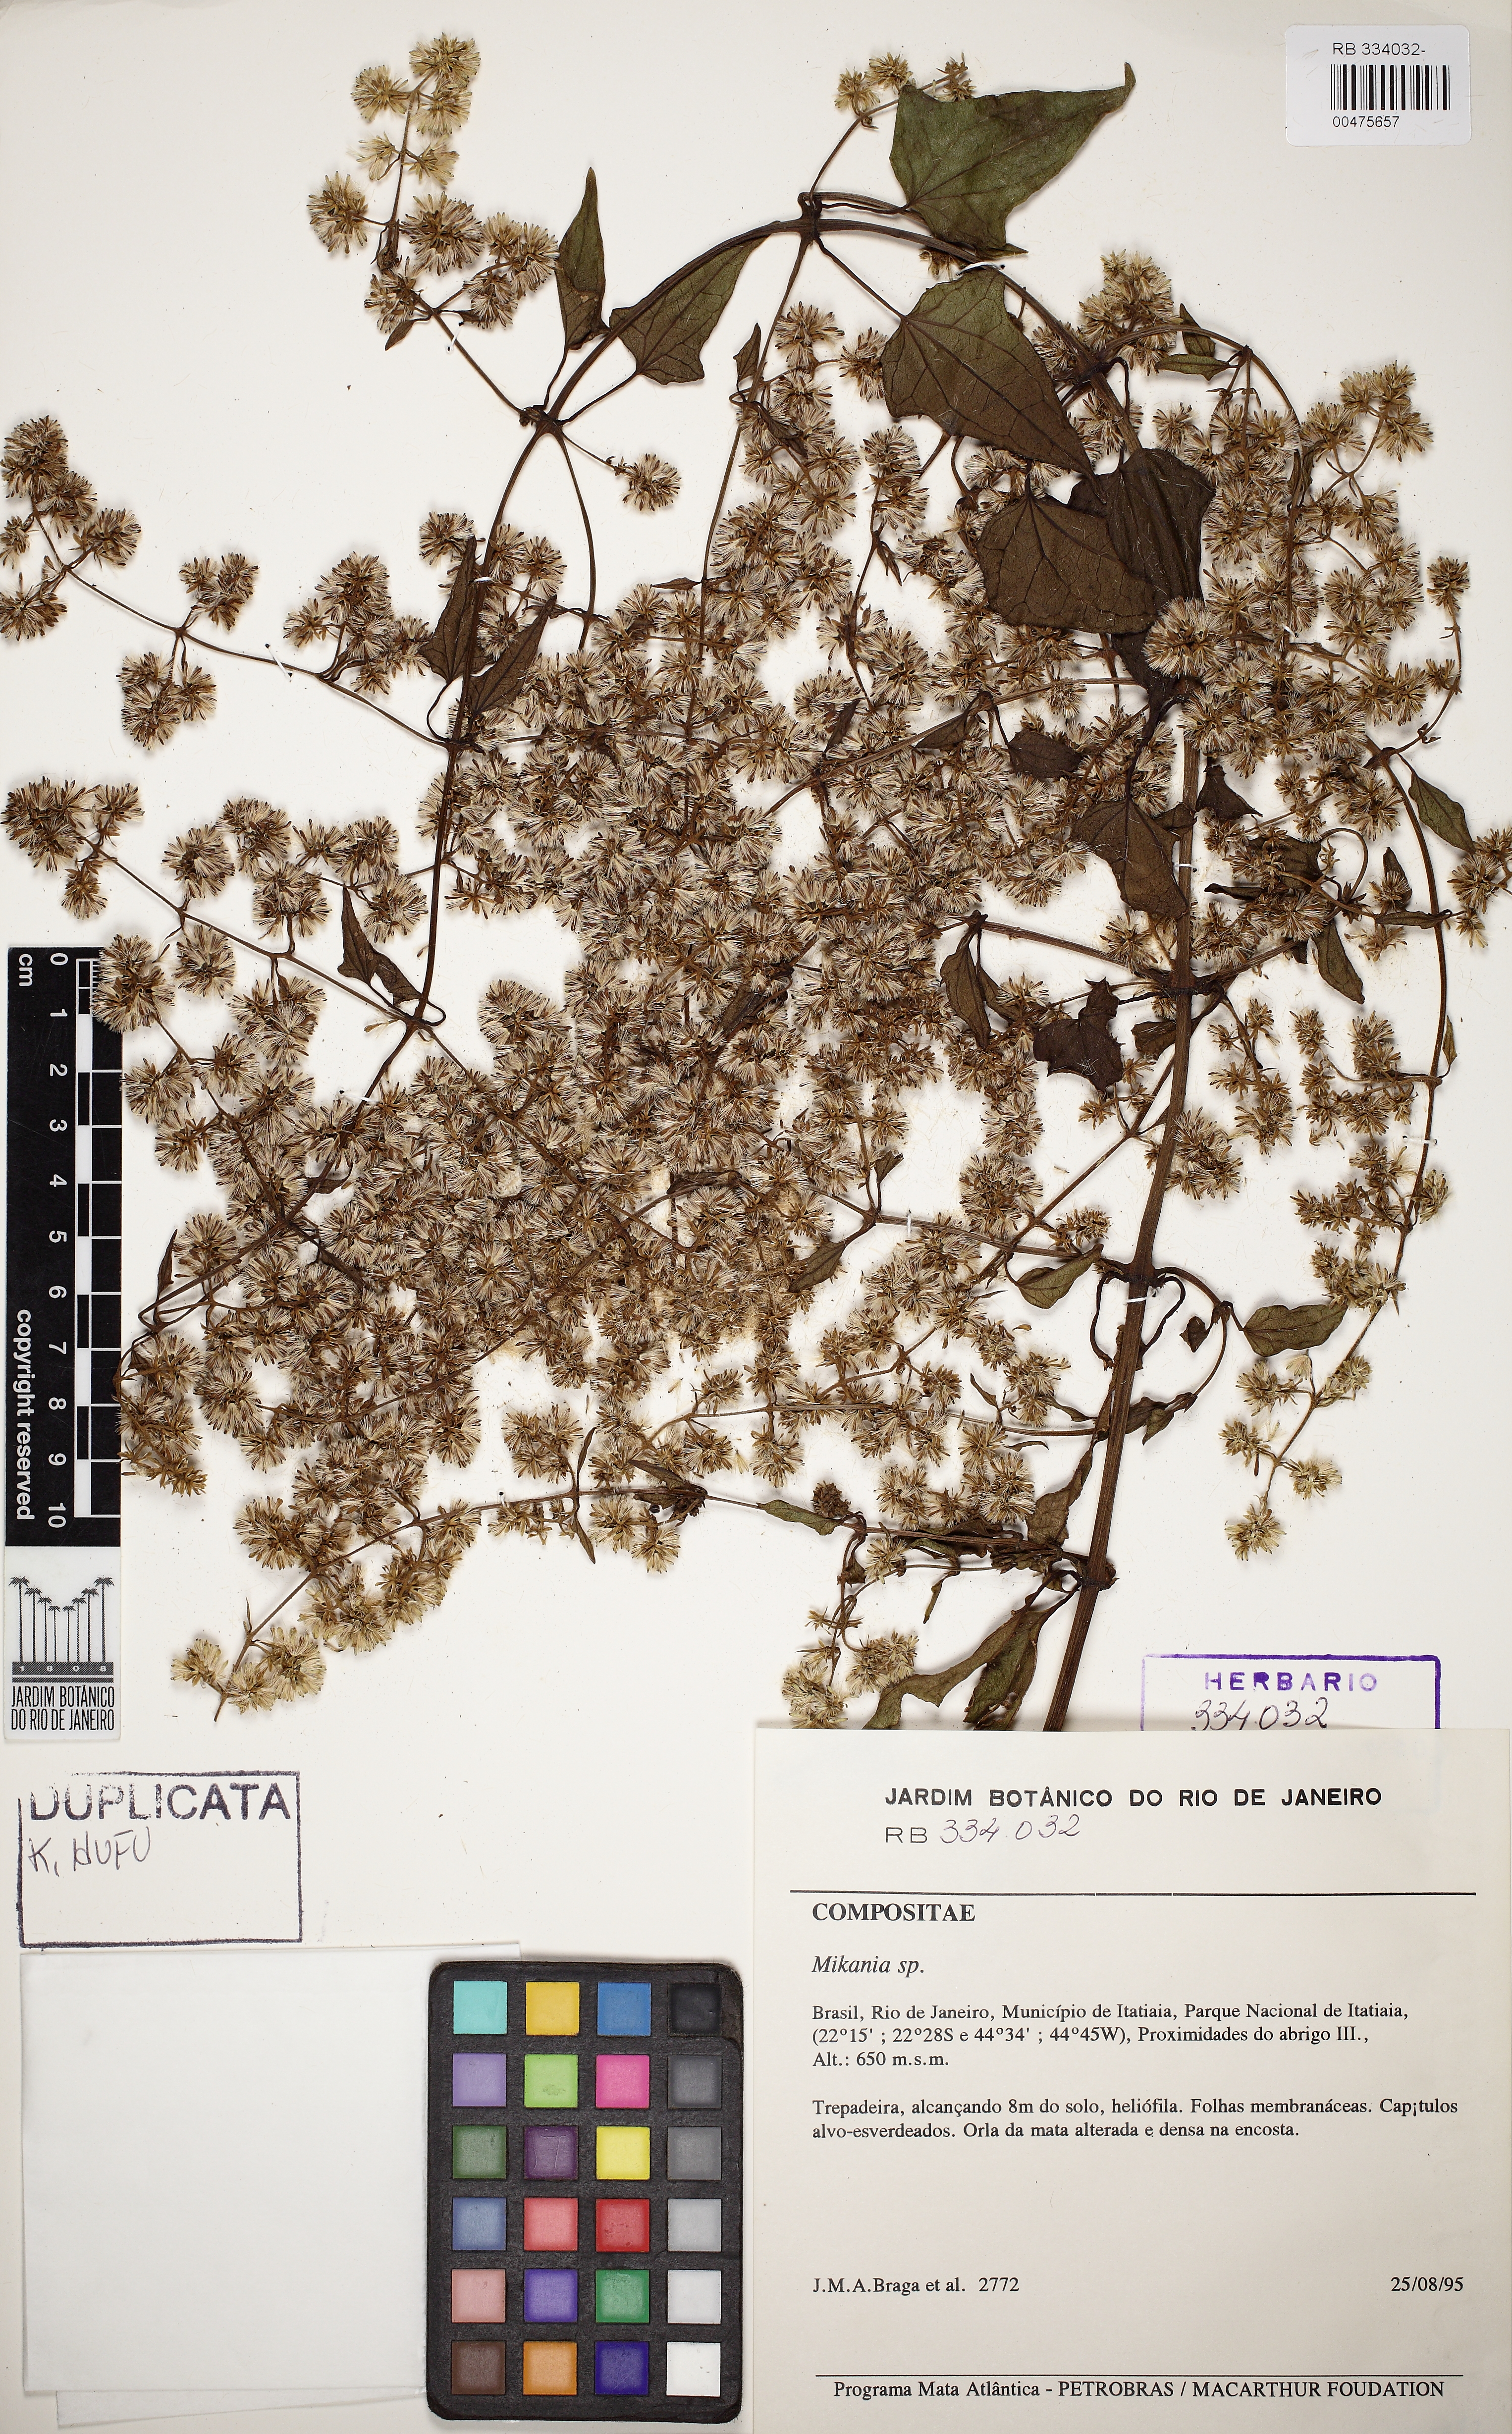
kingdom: Plantae
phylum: Tracheophyta
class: Magnoliopsida
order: Asterales
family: Asteraceae
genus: Mikania
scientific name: Mikania glomerata
